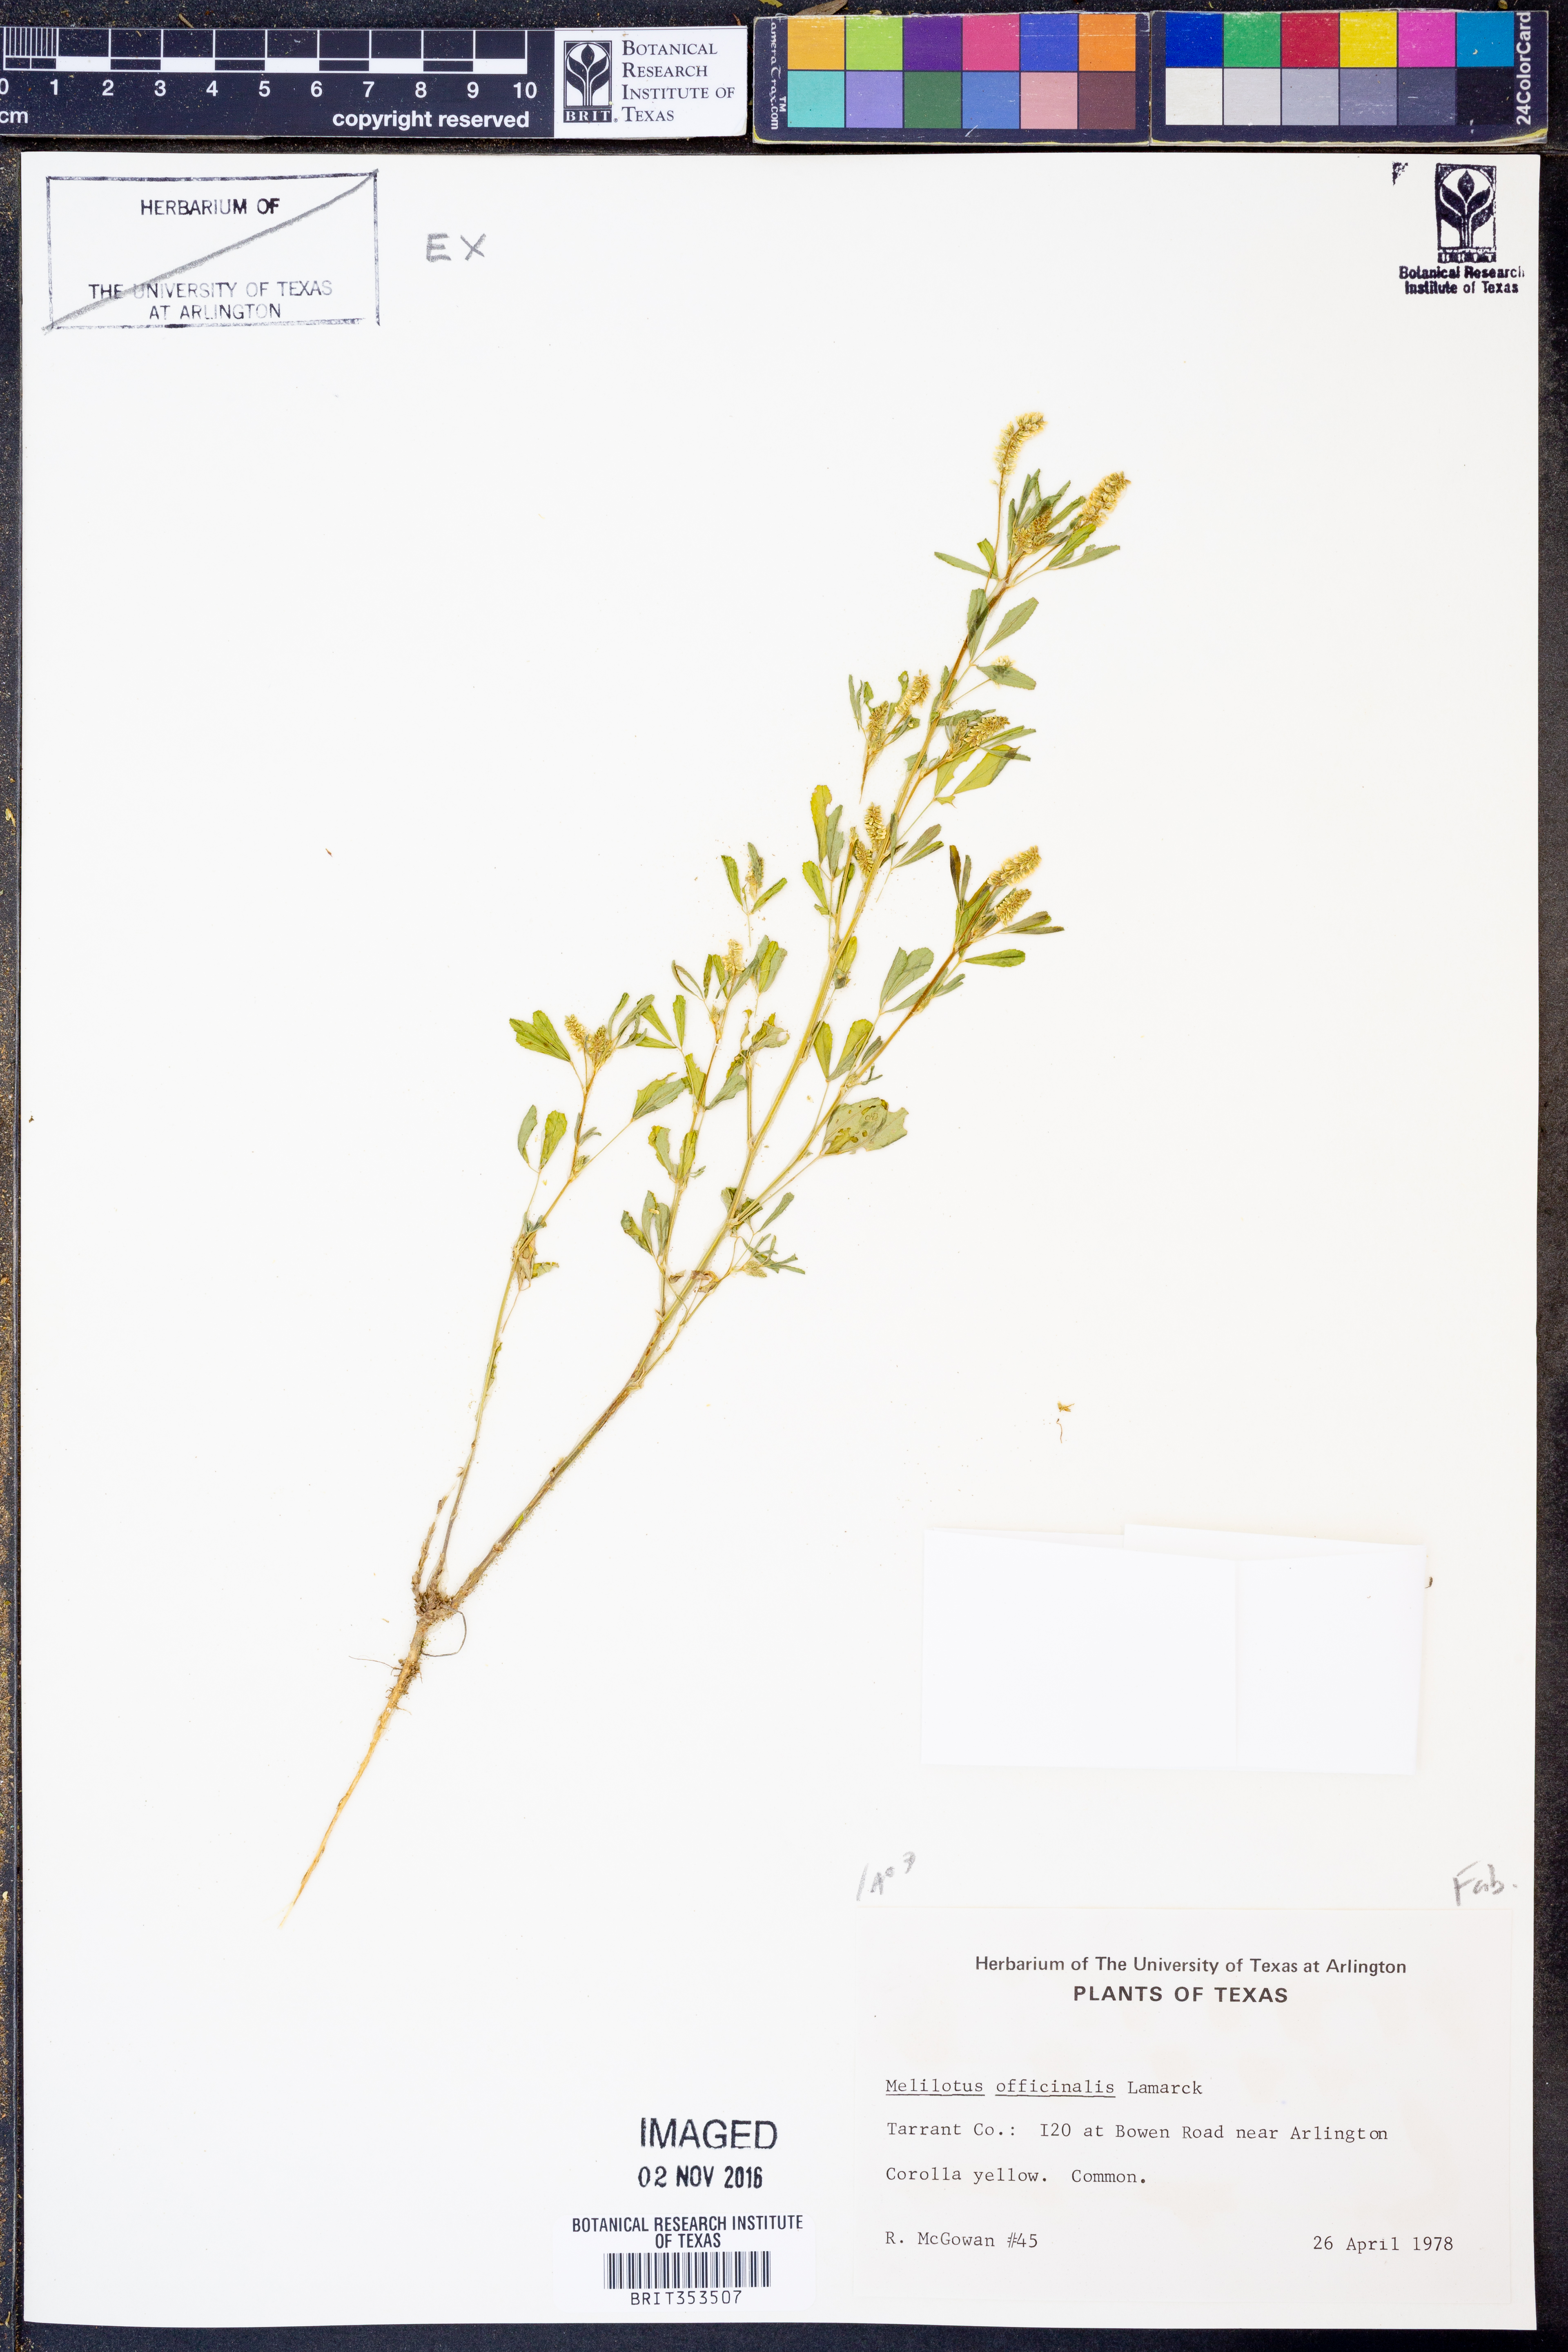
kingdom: Plantae
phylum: Tracheophyta
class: Magnoliopsida
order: Fabales
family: Fabaceae
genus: Melilotus
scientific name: Melilotus officinalis
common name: Sweetclover
